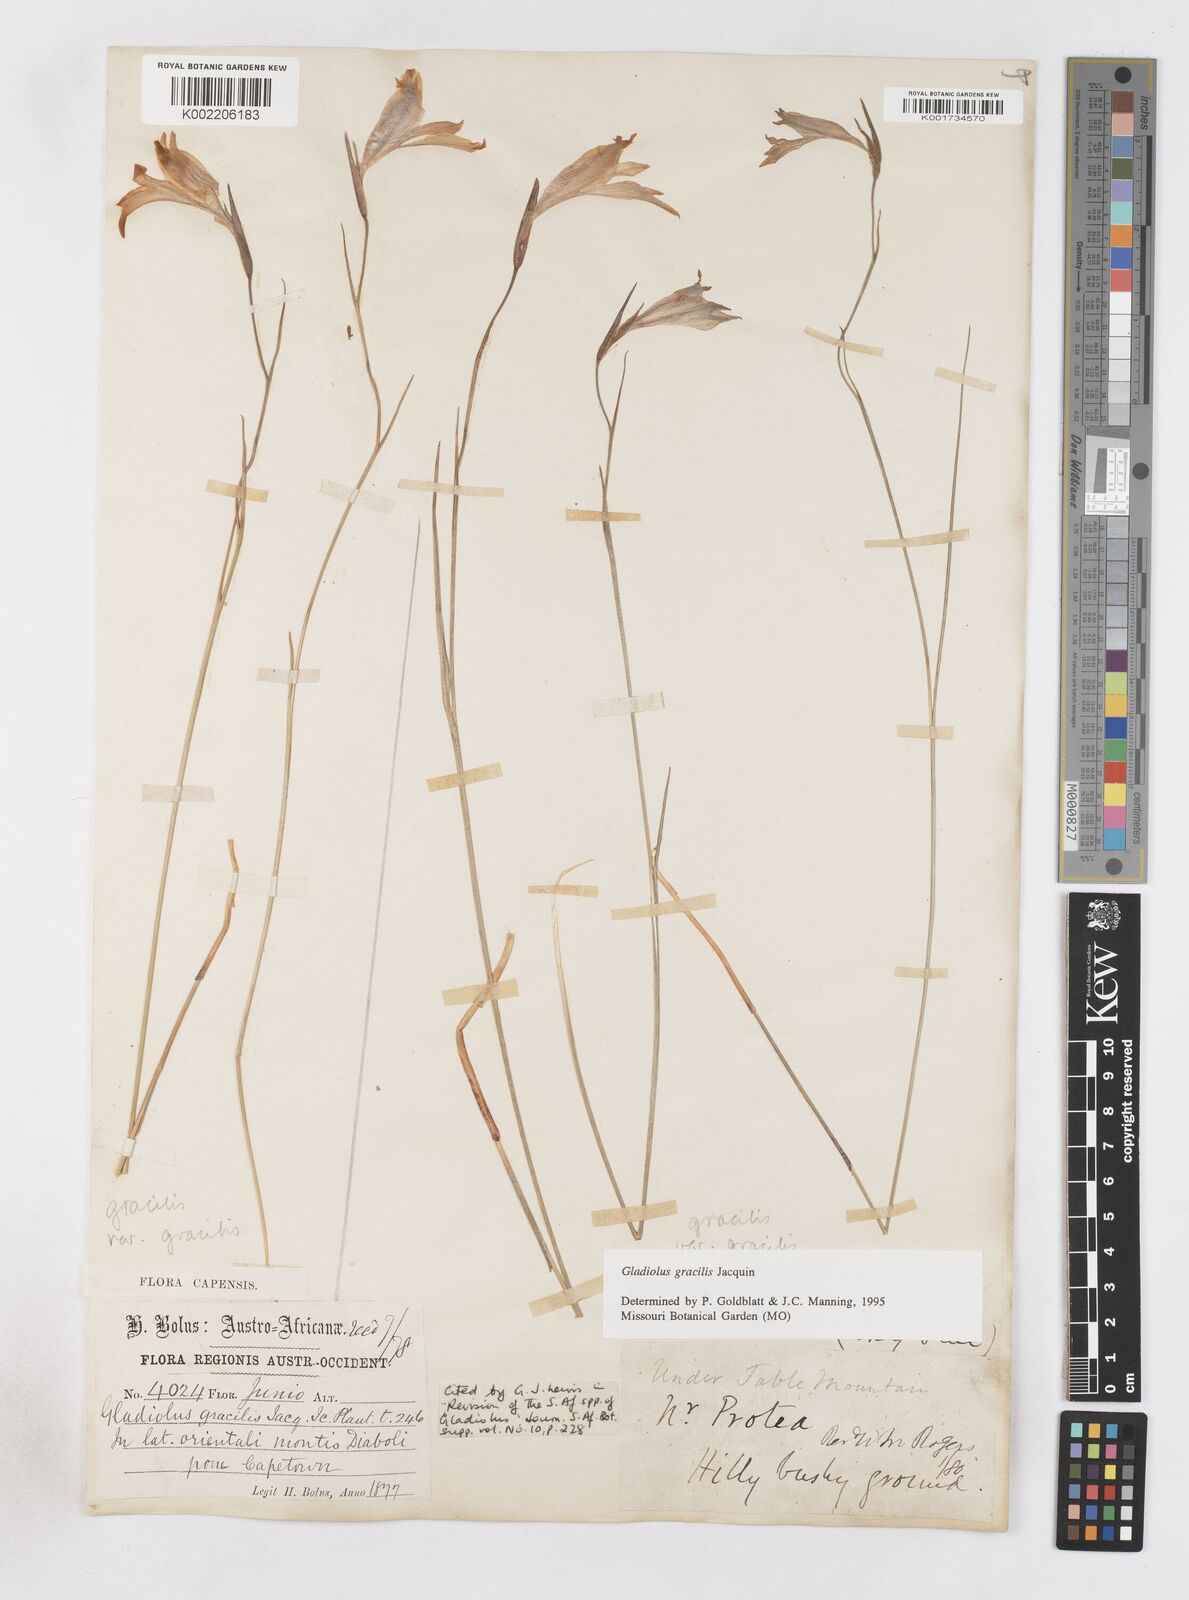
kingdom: Plantae
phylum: Tracheophyta
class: Liliopsida
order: Asparagales
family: Iridaceae
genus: Gladiolus
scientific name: Gladiolus gracilis
